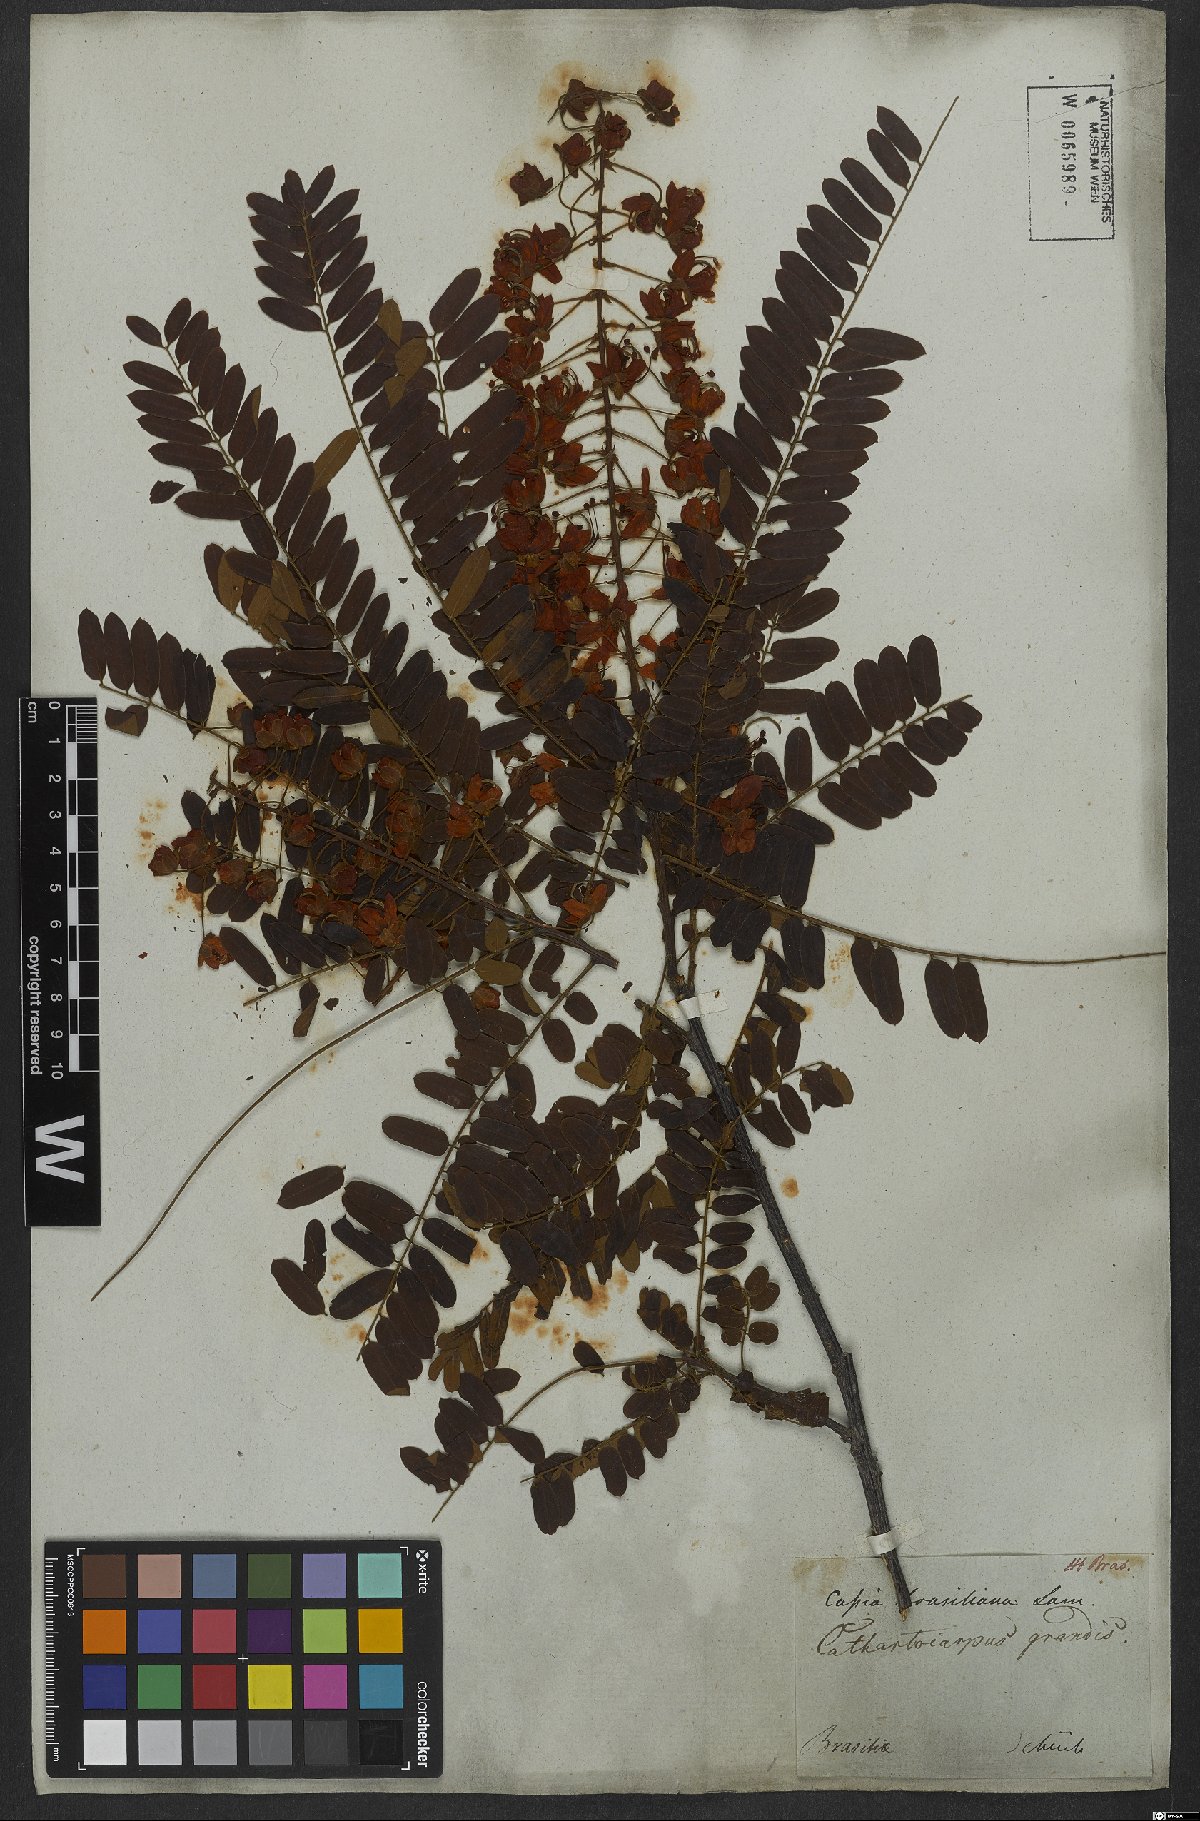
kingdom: Plantae
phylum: Tracheophyta
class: Magnoliopsida
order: Fabales
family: Fabaceae
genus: Cassia
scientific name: Cassia grandis
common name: Appleblossom cassia
